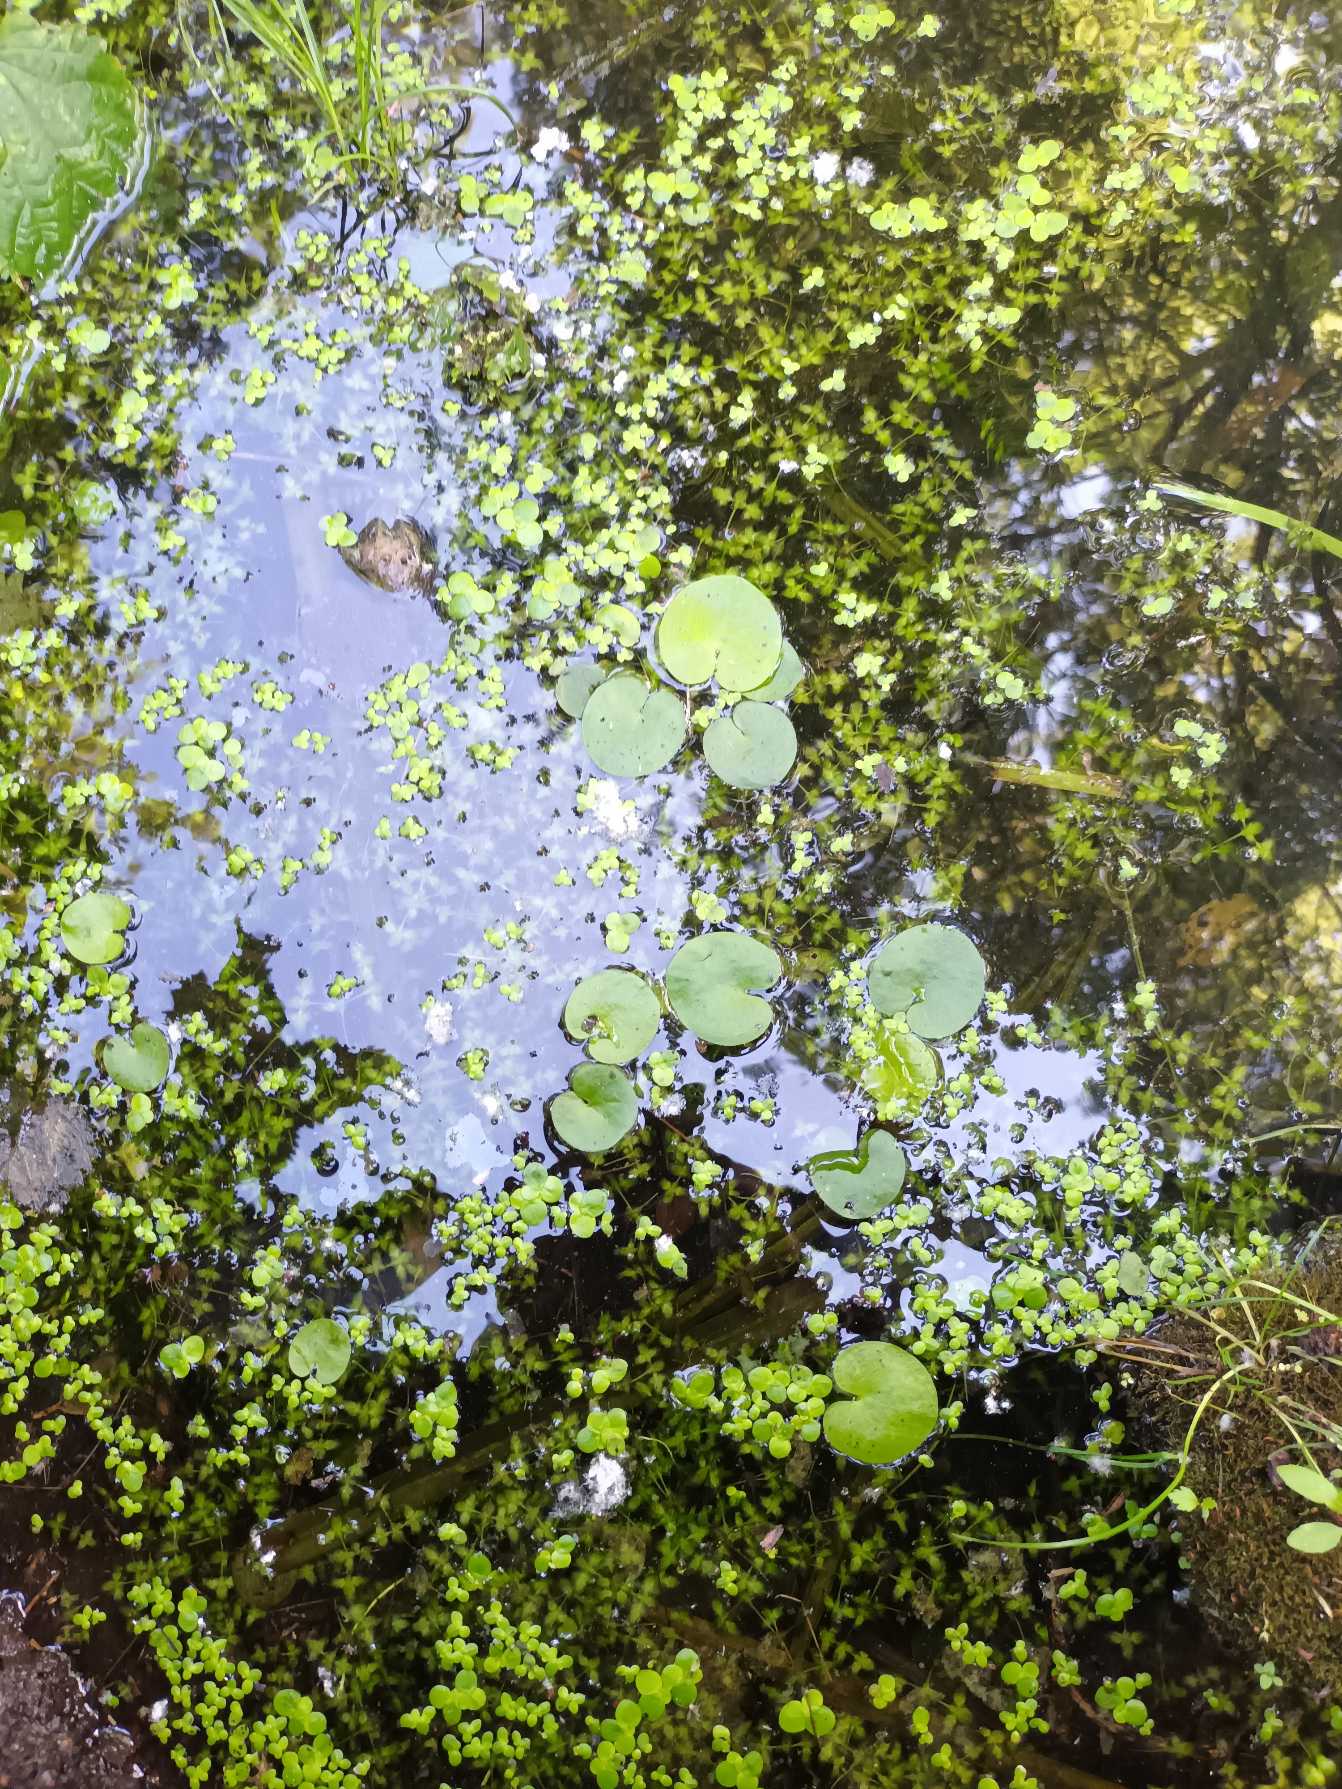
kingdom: Plantae
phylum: Tracheophyta
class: Liliopsida
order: Alismatales
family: Hydrocharitaceae
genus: Hydrocharis
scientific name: Hydrocharis morsus-ranae
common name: Frøbid
